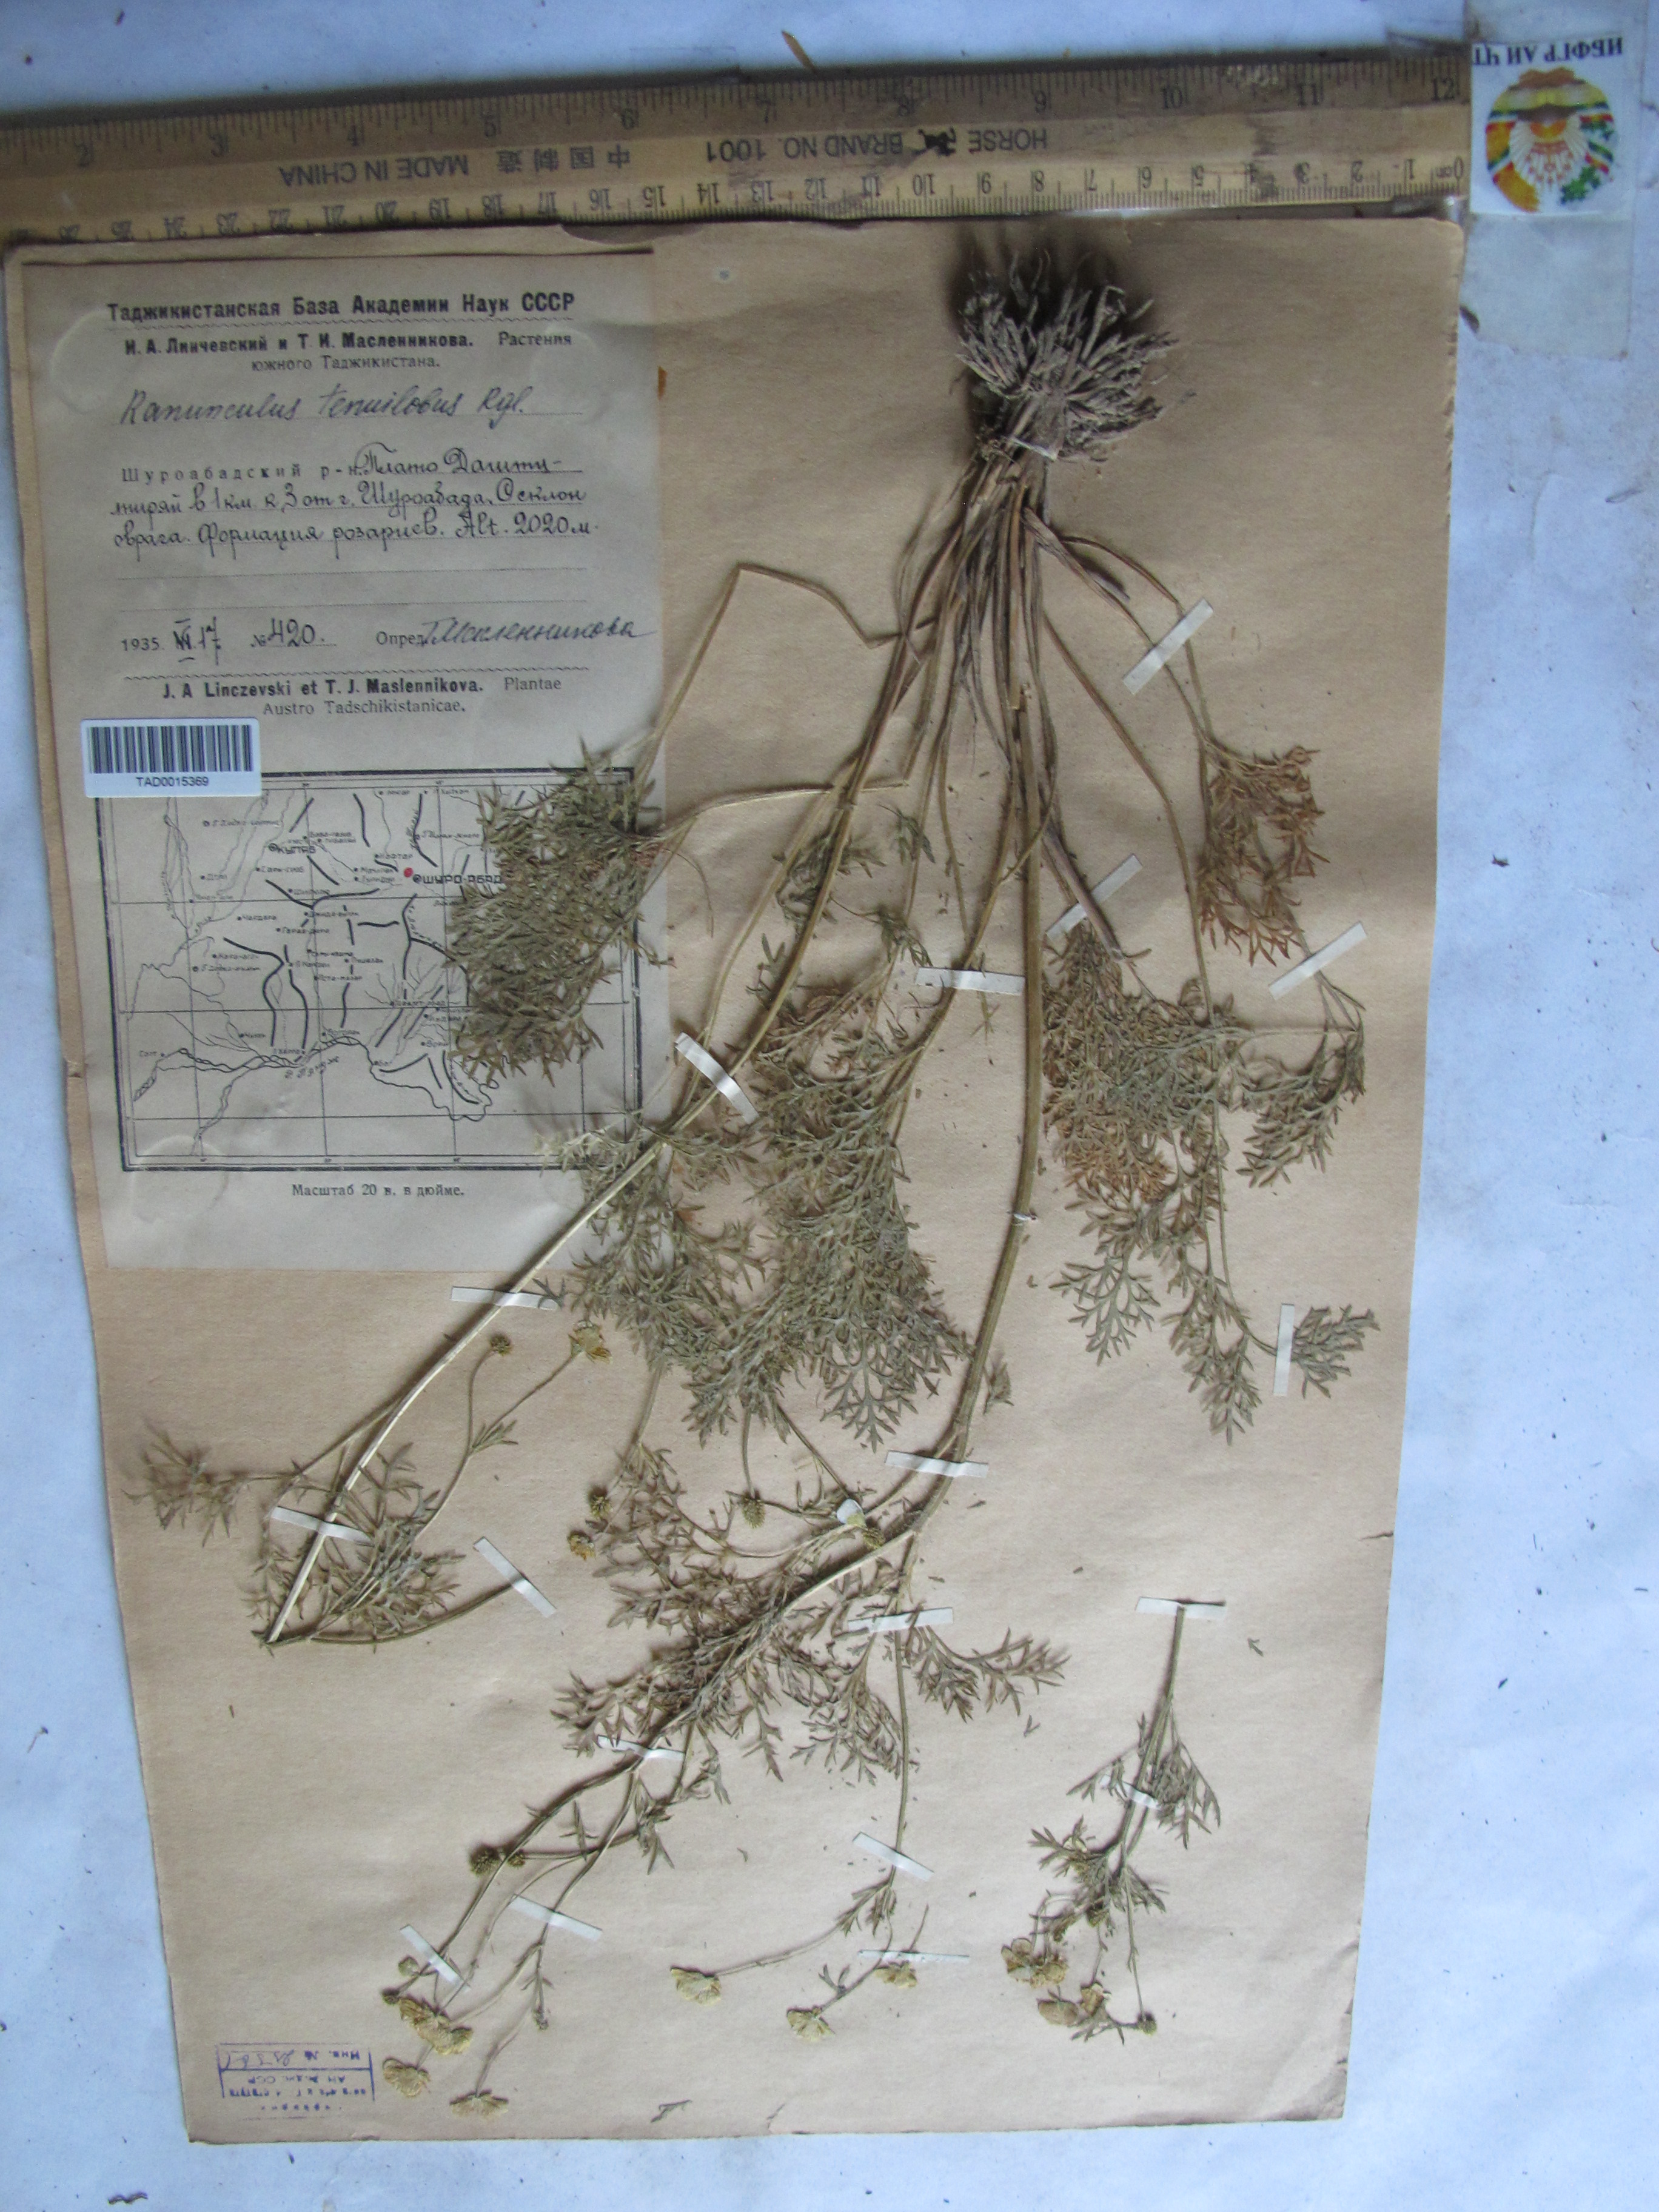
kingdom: Plantae
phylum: Tracheophyta
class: Magnoliopsida
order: Ranunculales
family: Ranunculaceae
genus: Ranunculus
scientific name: Ranunculus tenuilobus
